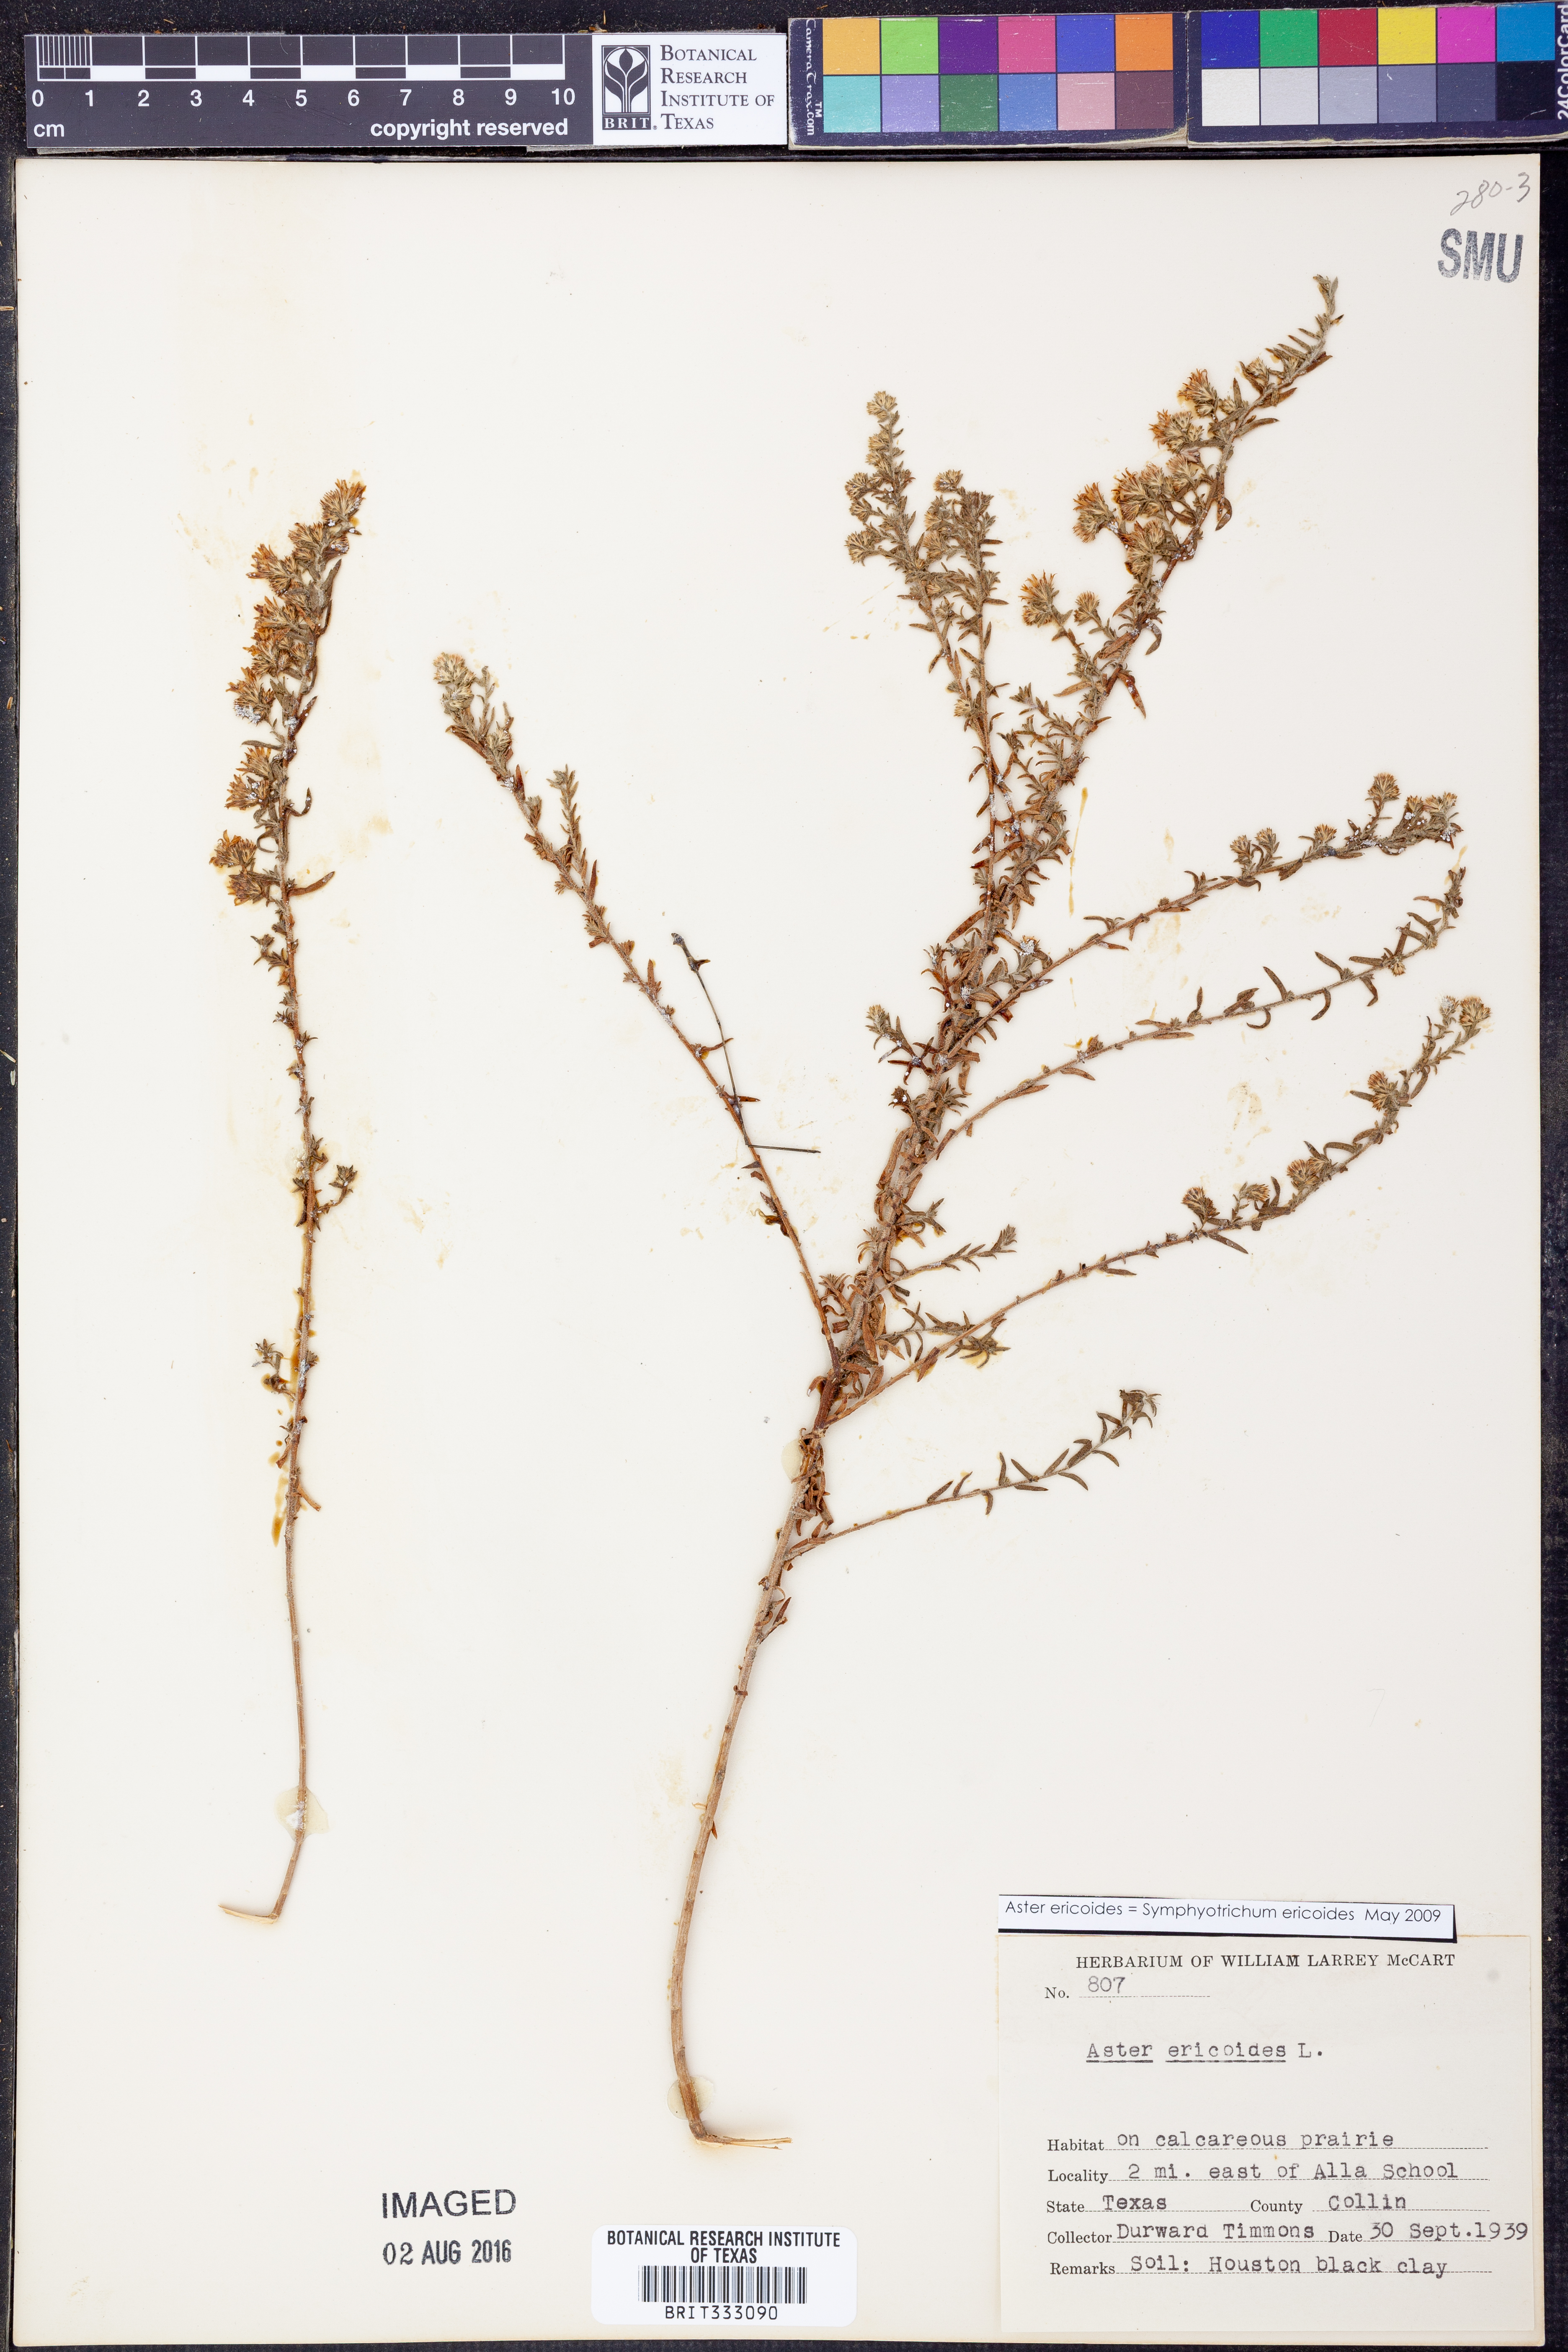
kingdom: Plantae
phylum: Tracheophyta
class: Magnoliopsida
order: Asterales
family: Asteraceae
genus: Symphyotrichum
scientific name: Symphyotrichum ericoides
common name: Heath aster
